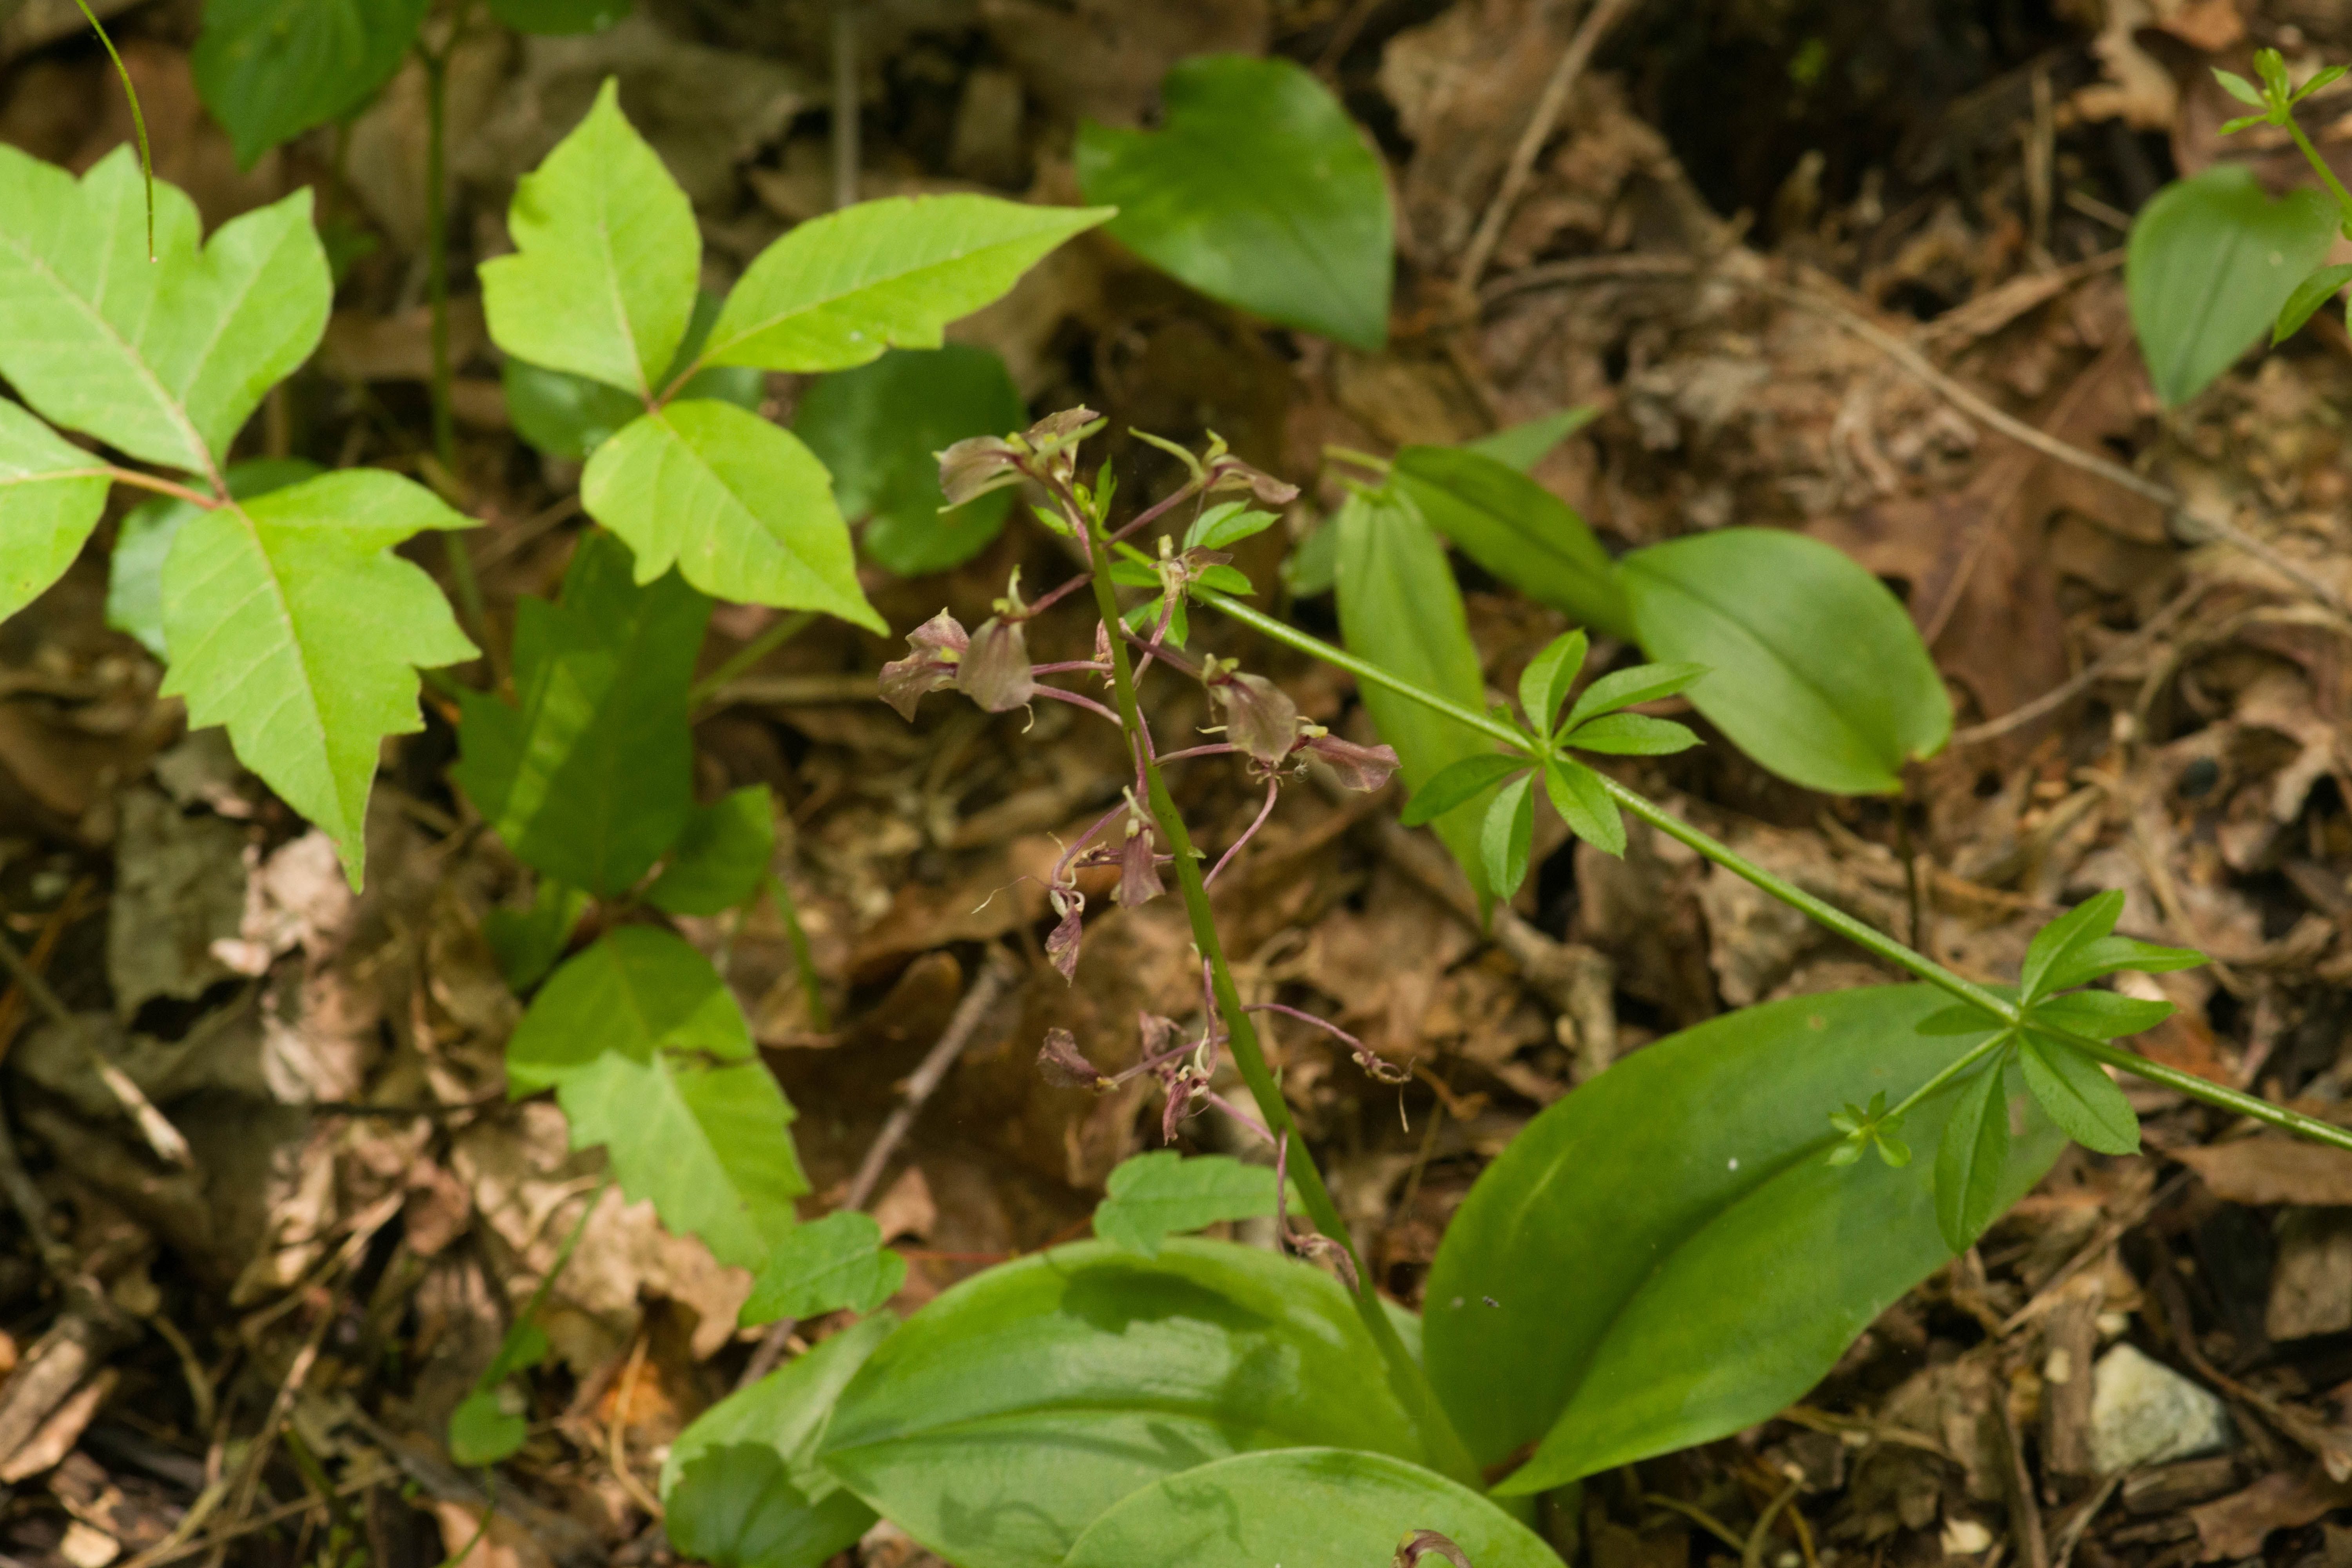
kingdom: Plantae
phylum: Tracheophyta
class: Liliopsida
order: Asparagales
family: Orchidaceae
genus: Liparis
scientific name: Liparis liliifolia
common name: Brown wide-lip orchid
